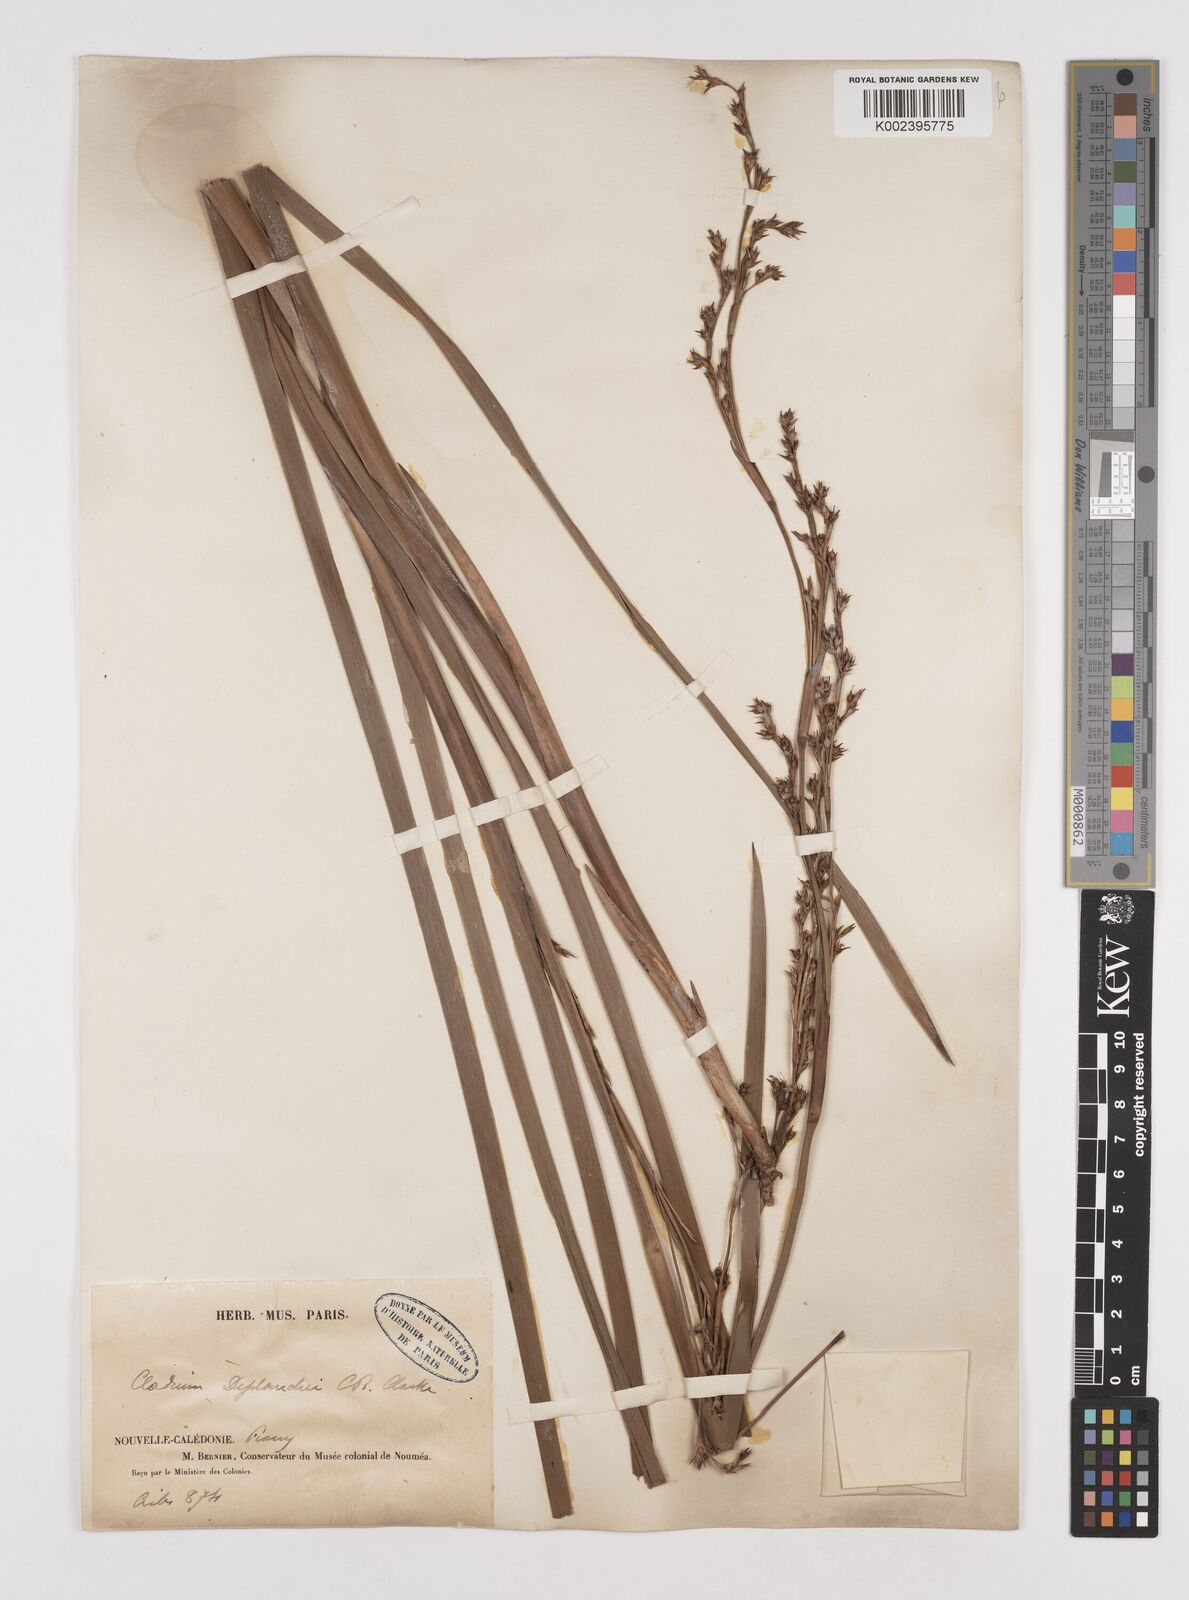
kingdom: Plantae
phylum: Tracheophyta
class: Liliopsida
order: Poales
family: Cyperaceae
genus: Machaerina
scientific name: Machaerina deplanchei
